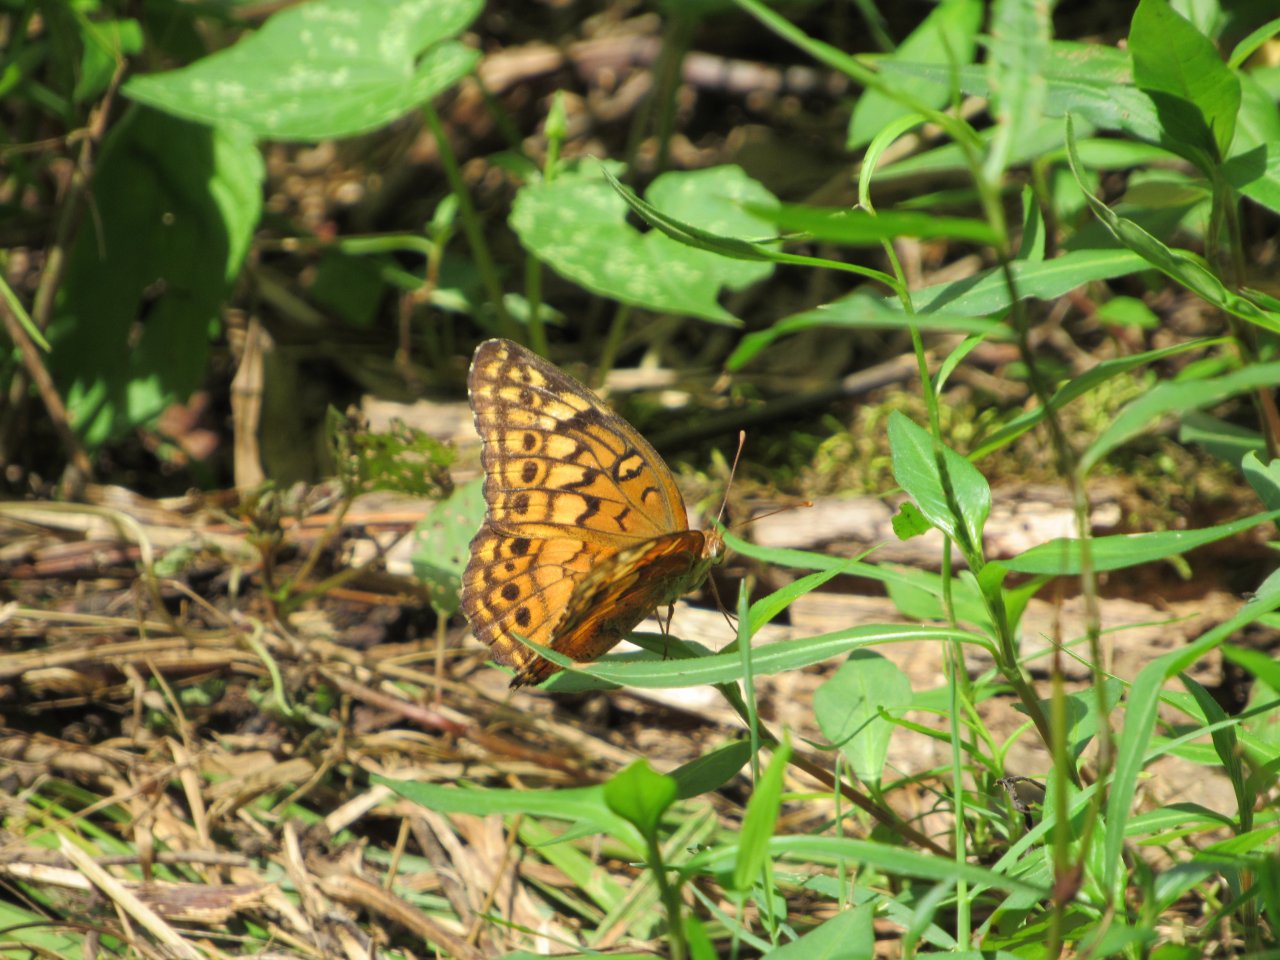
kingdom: Animalia
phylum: Arthropoda
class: Insecta
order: Lepidoptera
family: Nymphalidae
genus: Euptoieta
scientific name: Euptoieta claudia
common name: Variegated Fritillary
